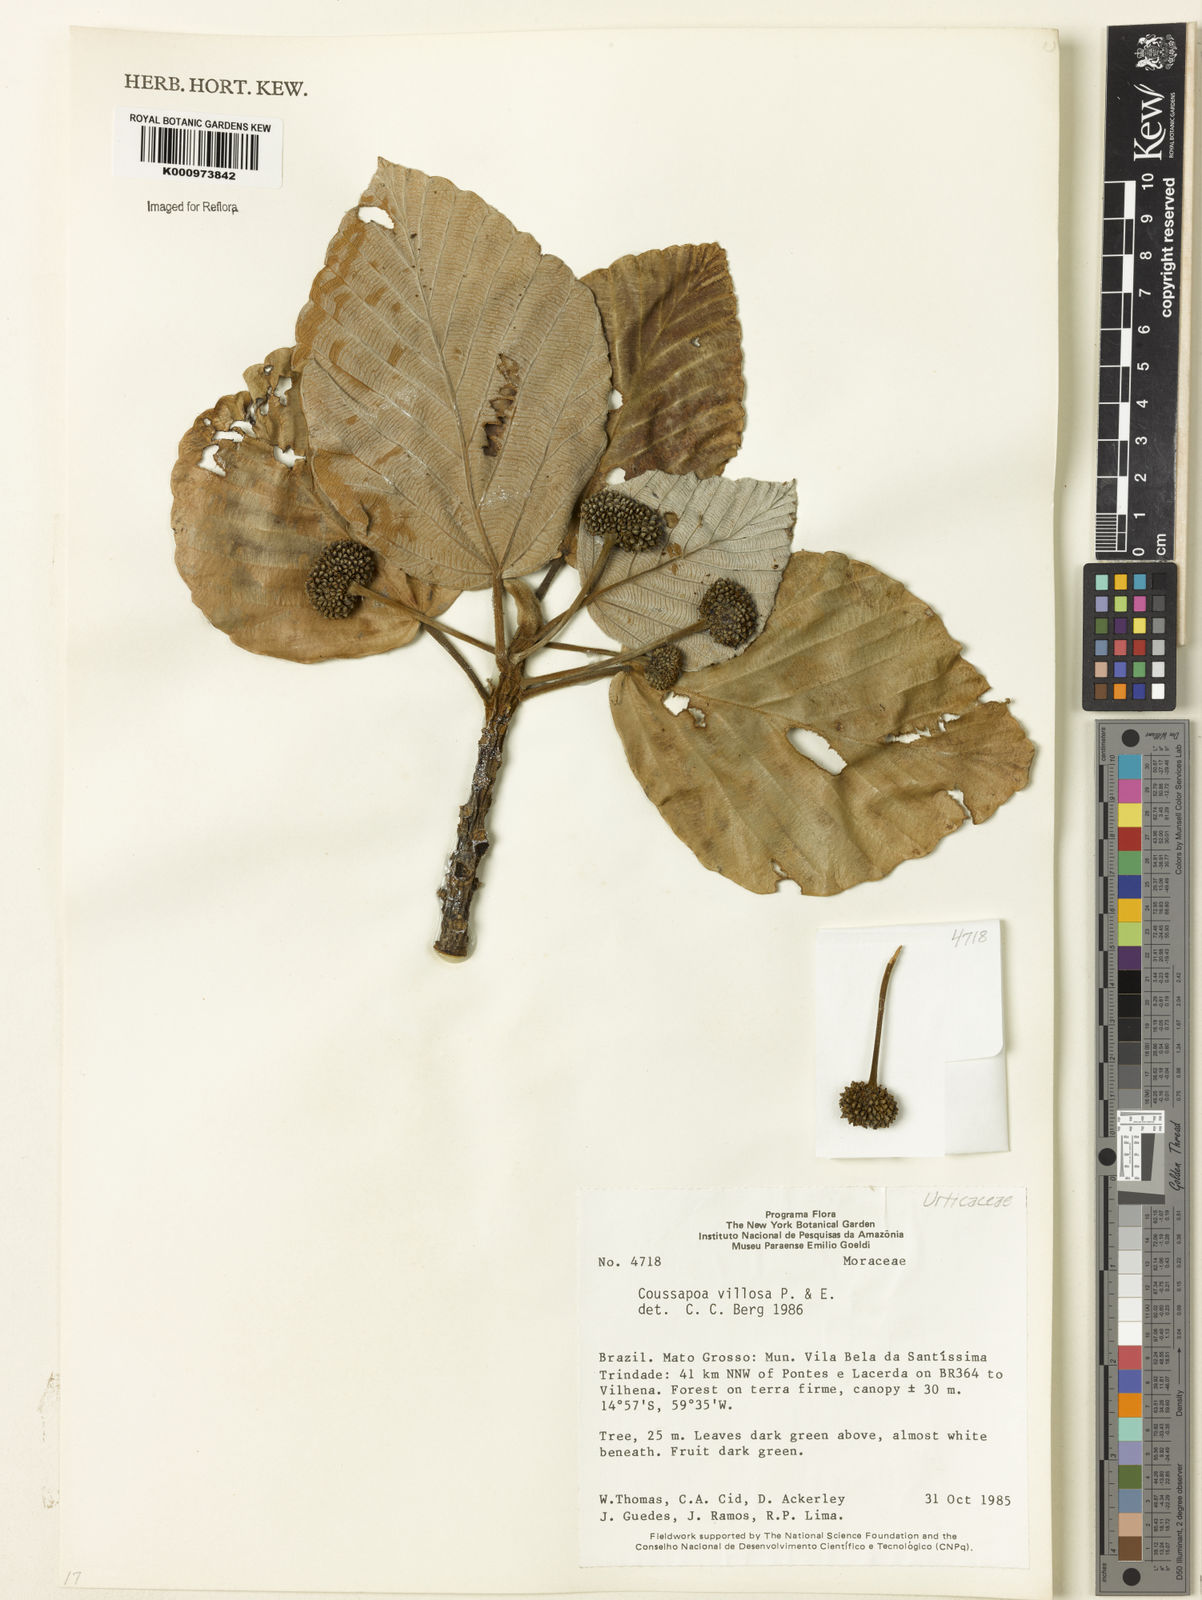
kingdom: Plantae
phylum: Tracheophyta
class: Magnoliopsida
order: Rosales
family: Urticaceae
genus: Coussapoa
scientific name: Coussapoa villosa
